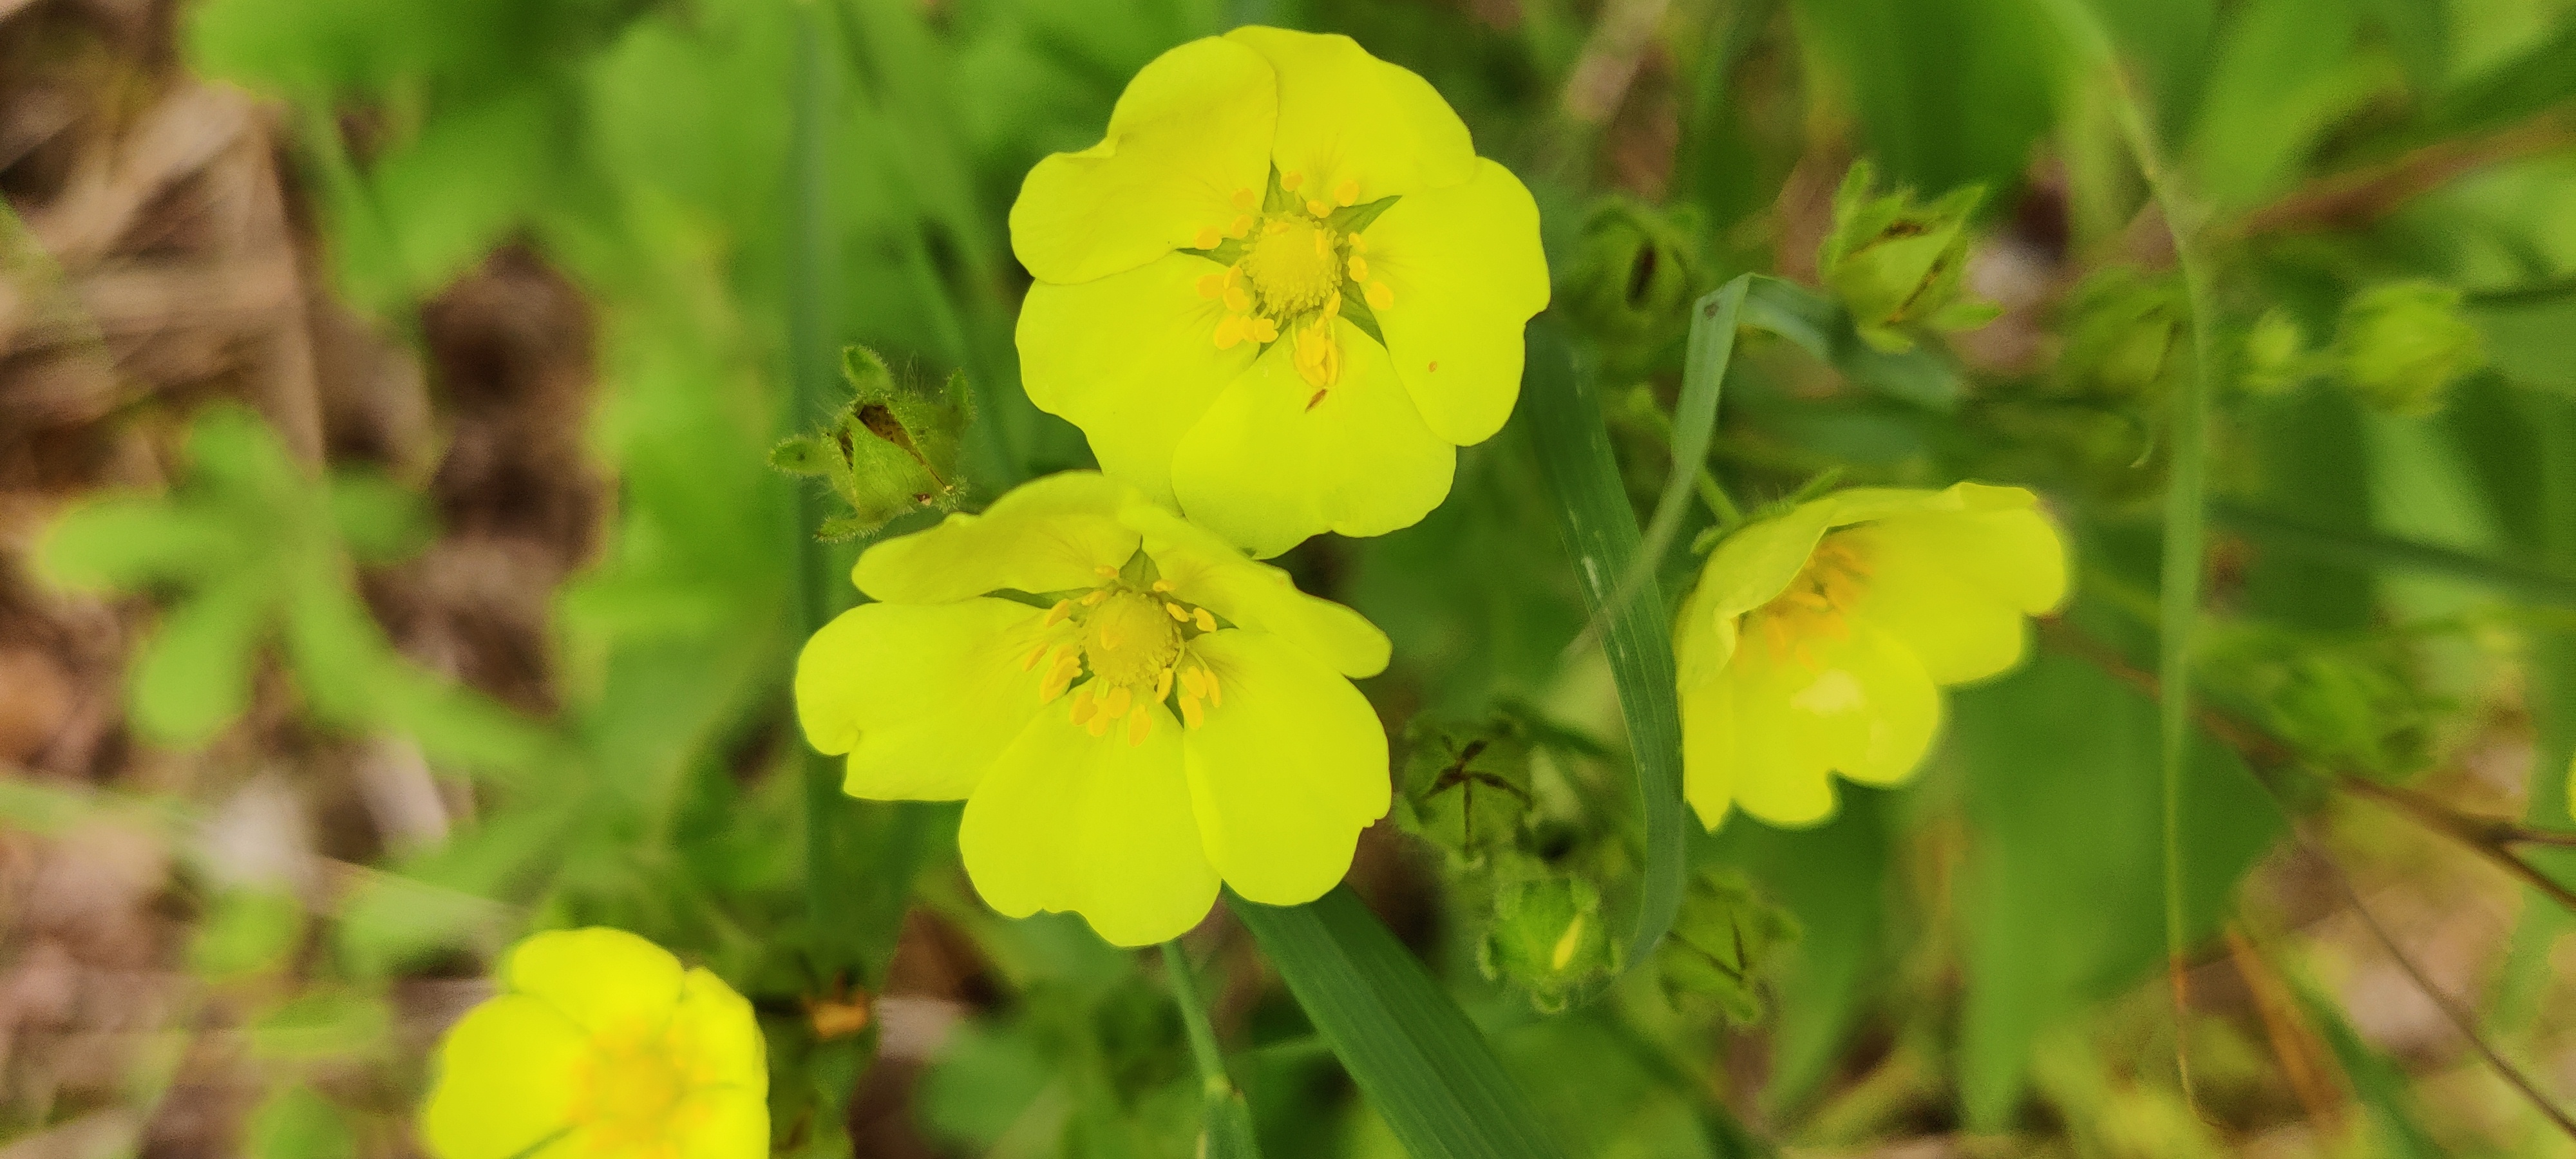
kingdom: Plantae
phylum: Tracheophyta
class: Magnoliopsida
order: Rosales
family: Rosaceae
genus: Potentilla
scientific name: Potentilla recta
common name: Rank potentil
